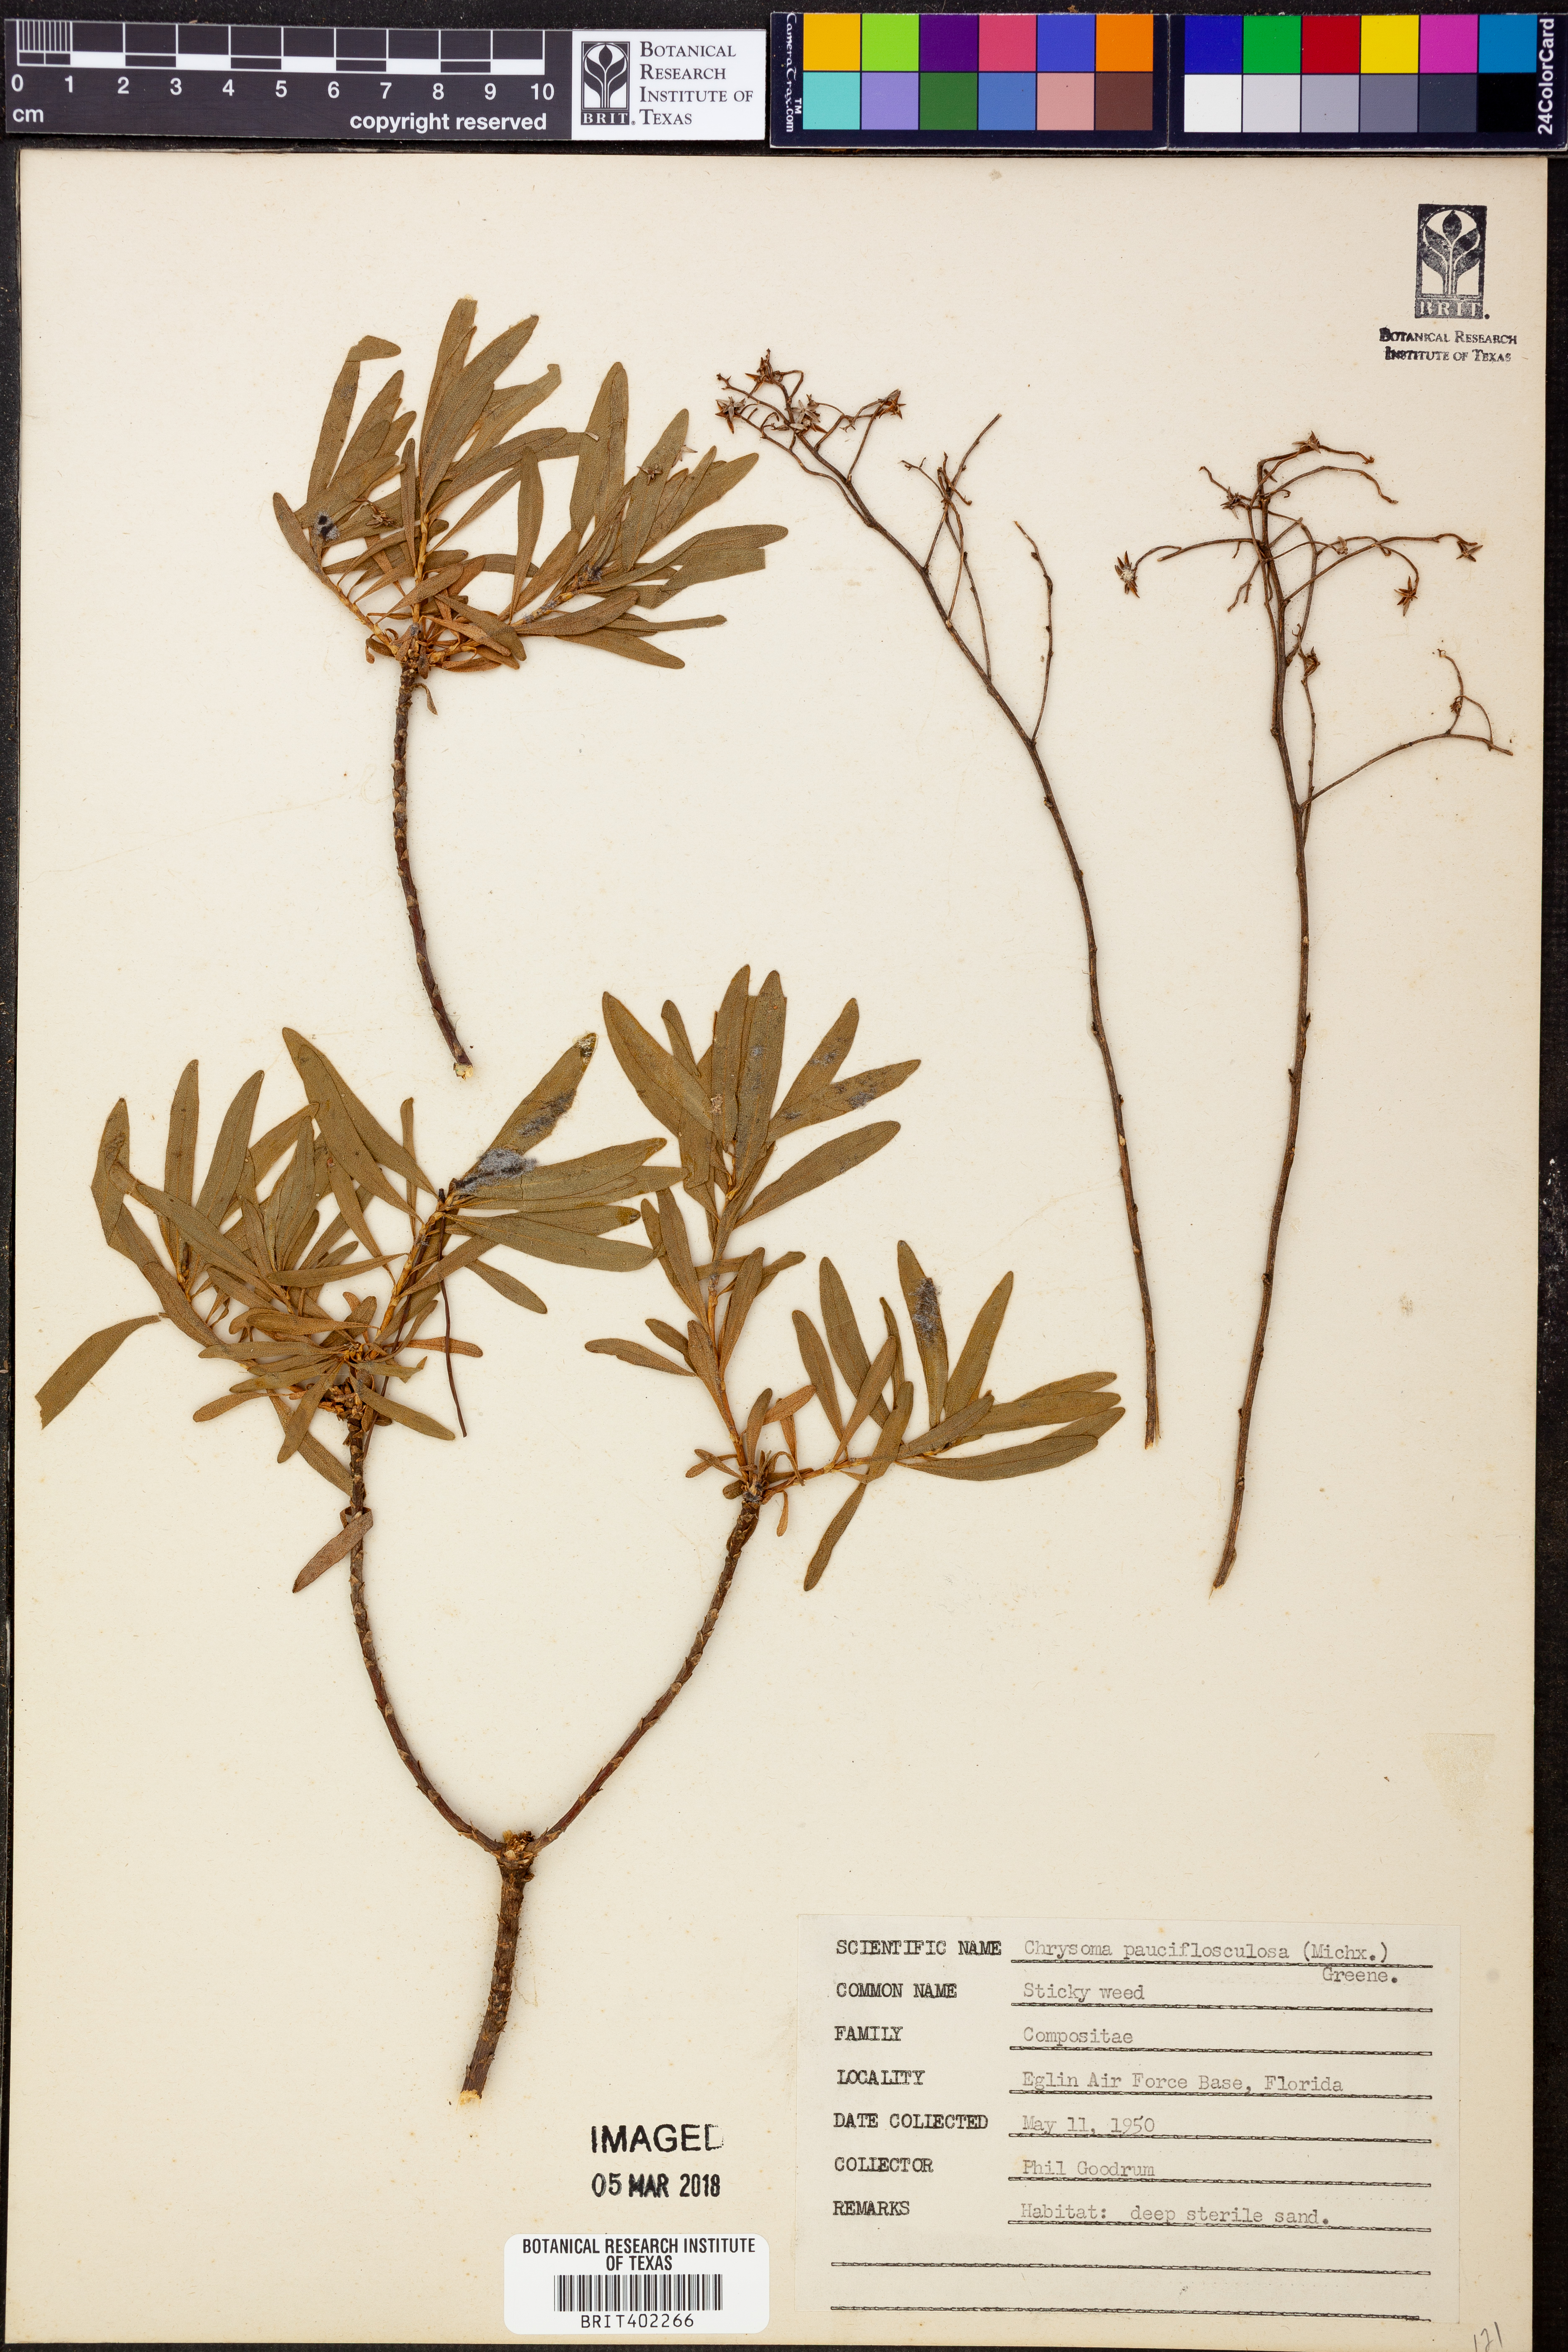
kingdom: Plantae
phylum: Tracheophyta
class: Magnoliopsida
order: Asterales
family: Asteraceae
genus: Chrysoma
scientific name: Chrysoma pauciflosculosa
